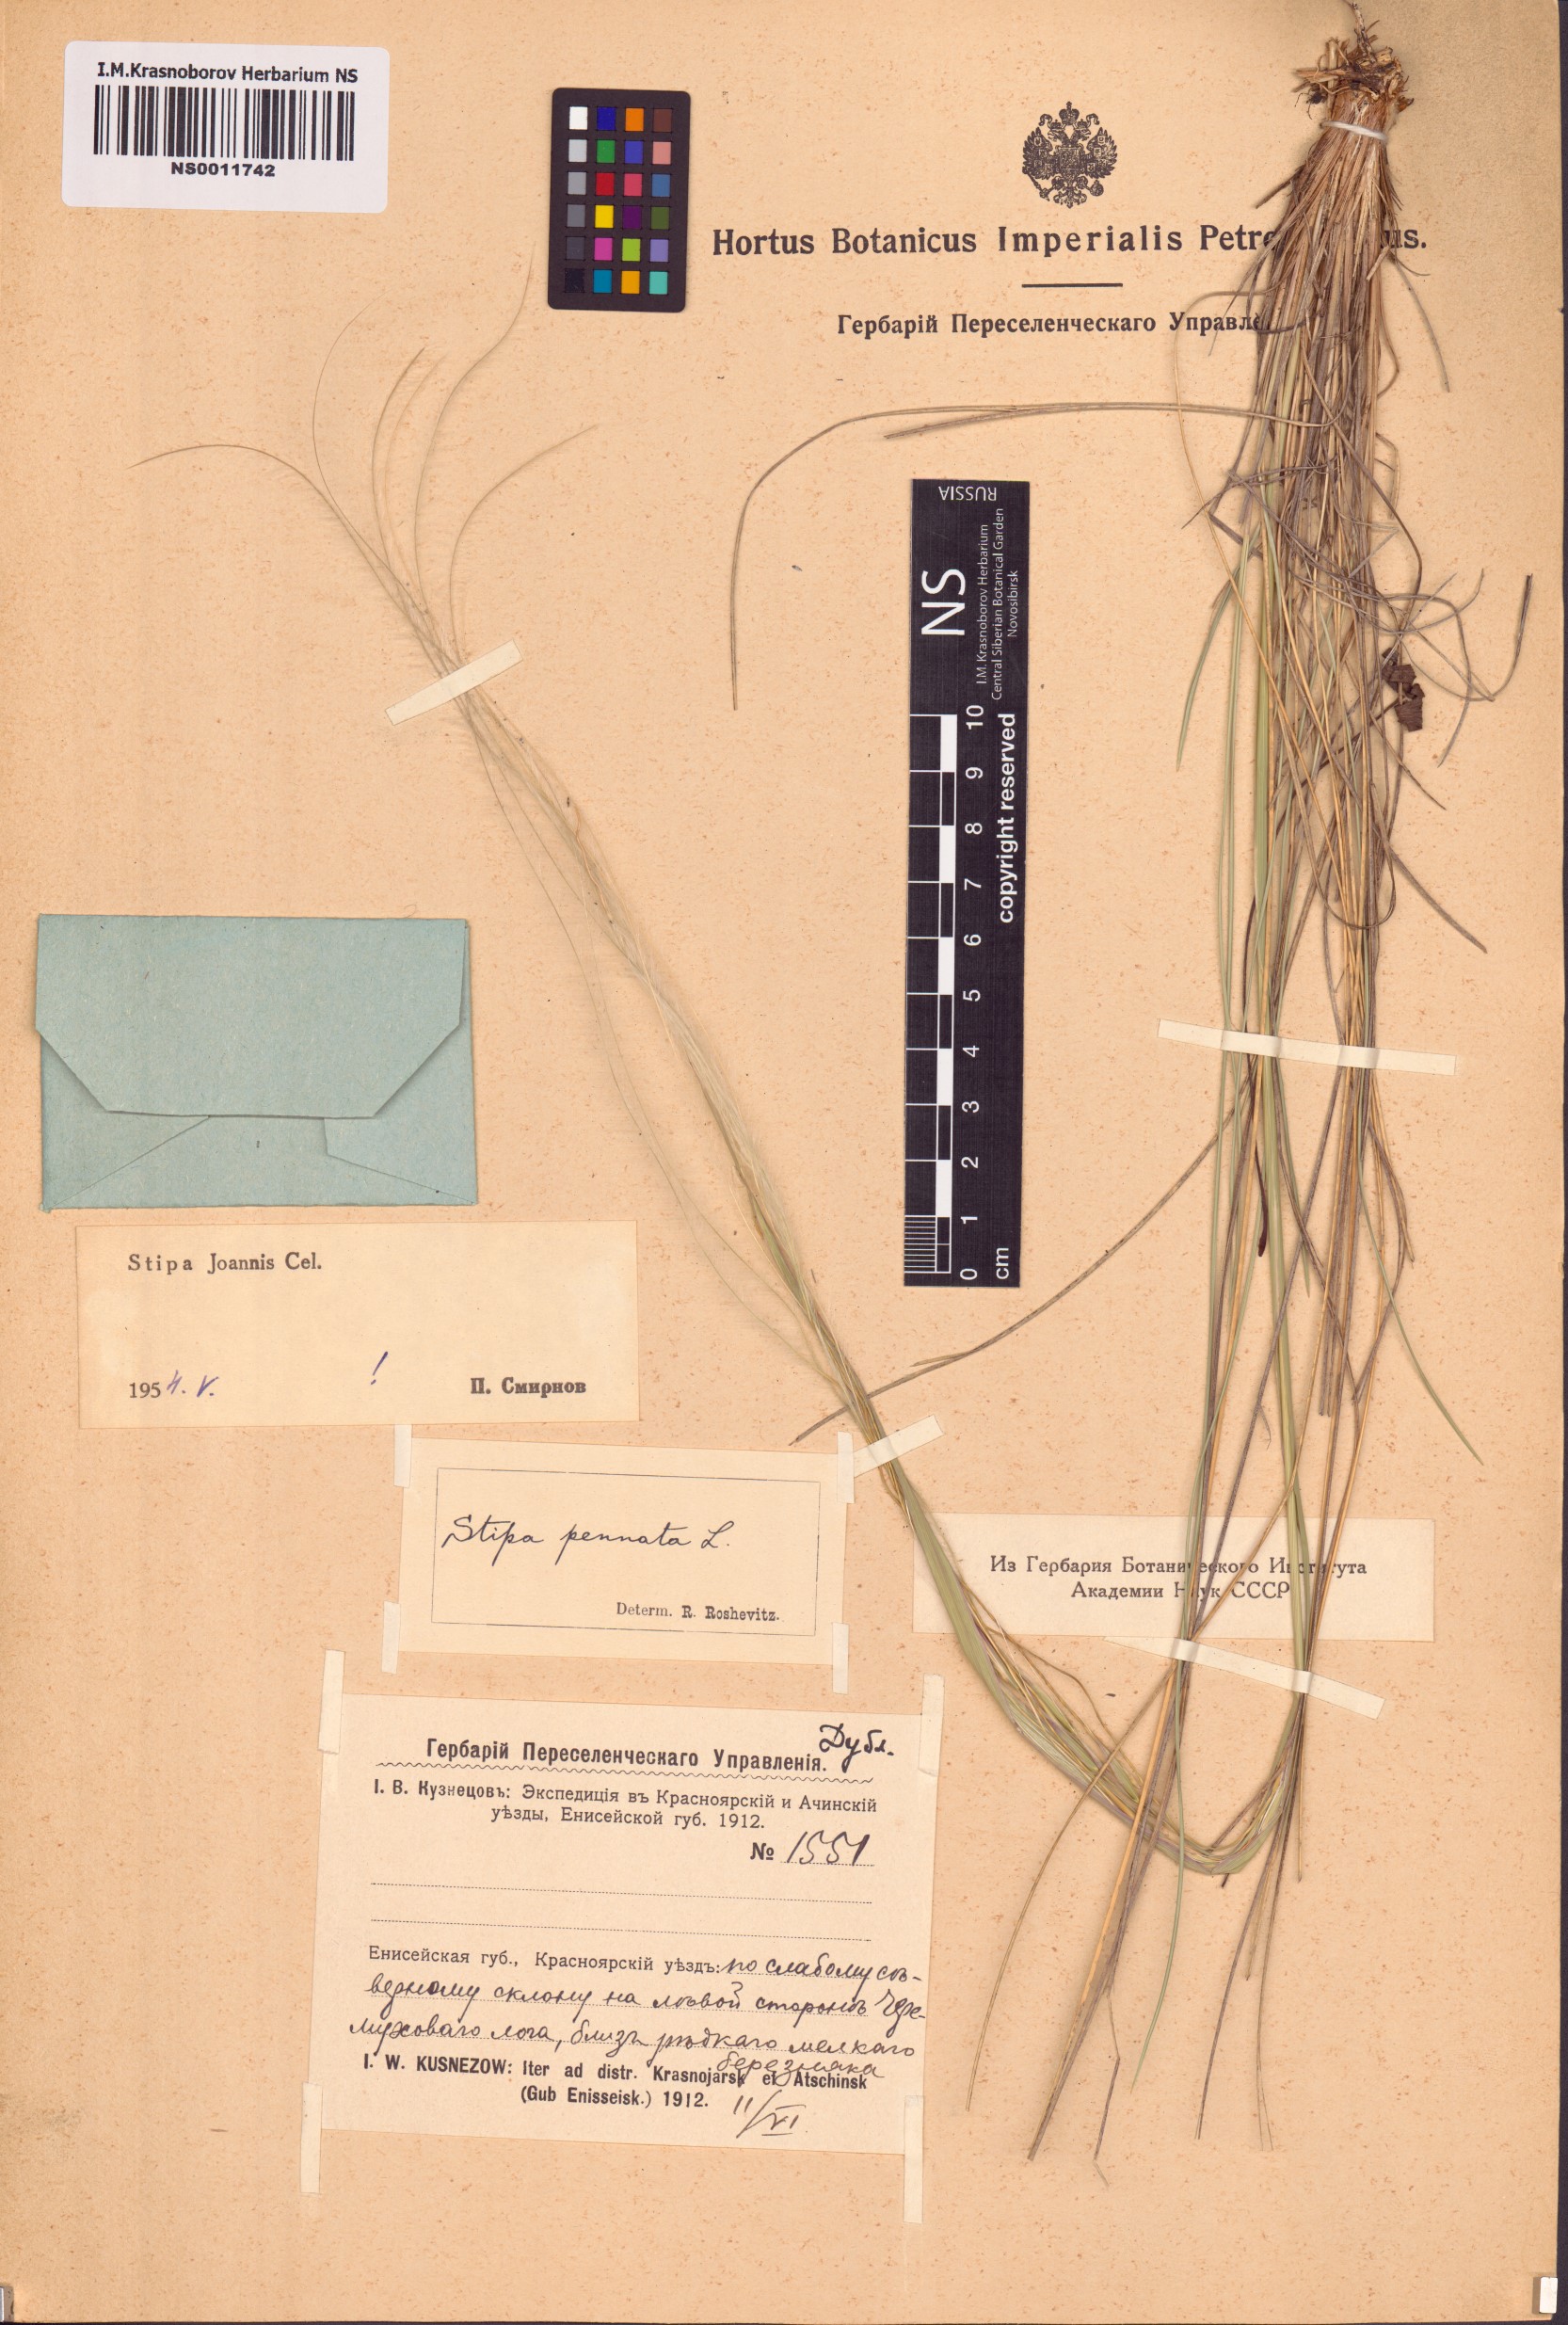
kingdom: Plantae
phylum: Tracheophyta
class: Liliopsida
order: Poales
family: Poaceae
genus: Stipa
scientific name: Stipa pennata
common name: European feather grass
